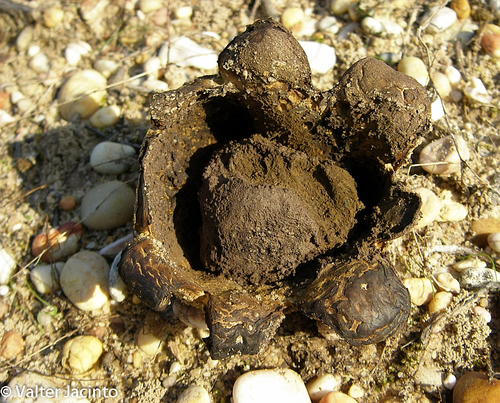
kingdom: Fungi
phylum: Basidiomycota
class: Agaricomycetes
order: Boletales
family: Sclerodermataceae
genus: Scleroderma
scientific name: Scleroderma polyrhizum
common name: Many-rooted earthball
